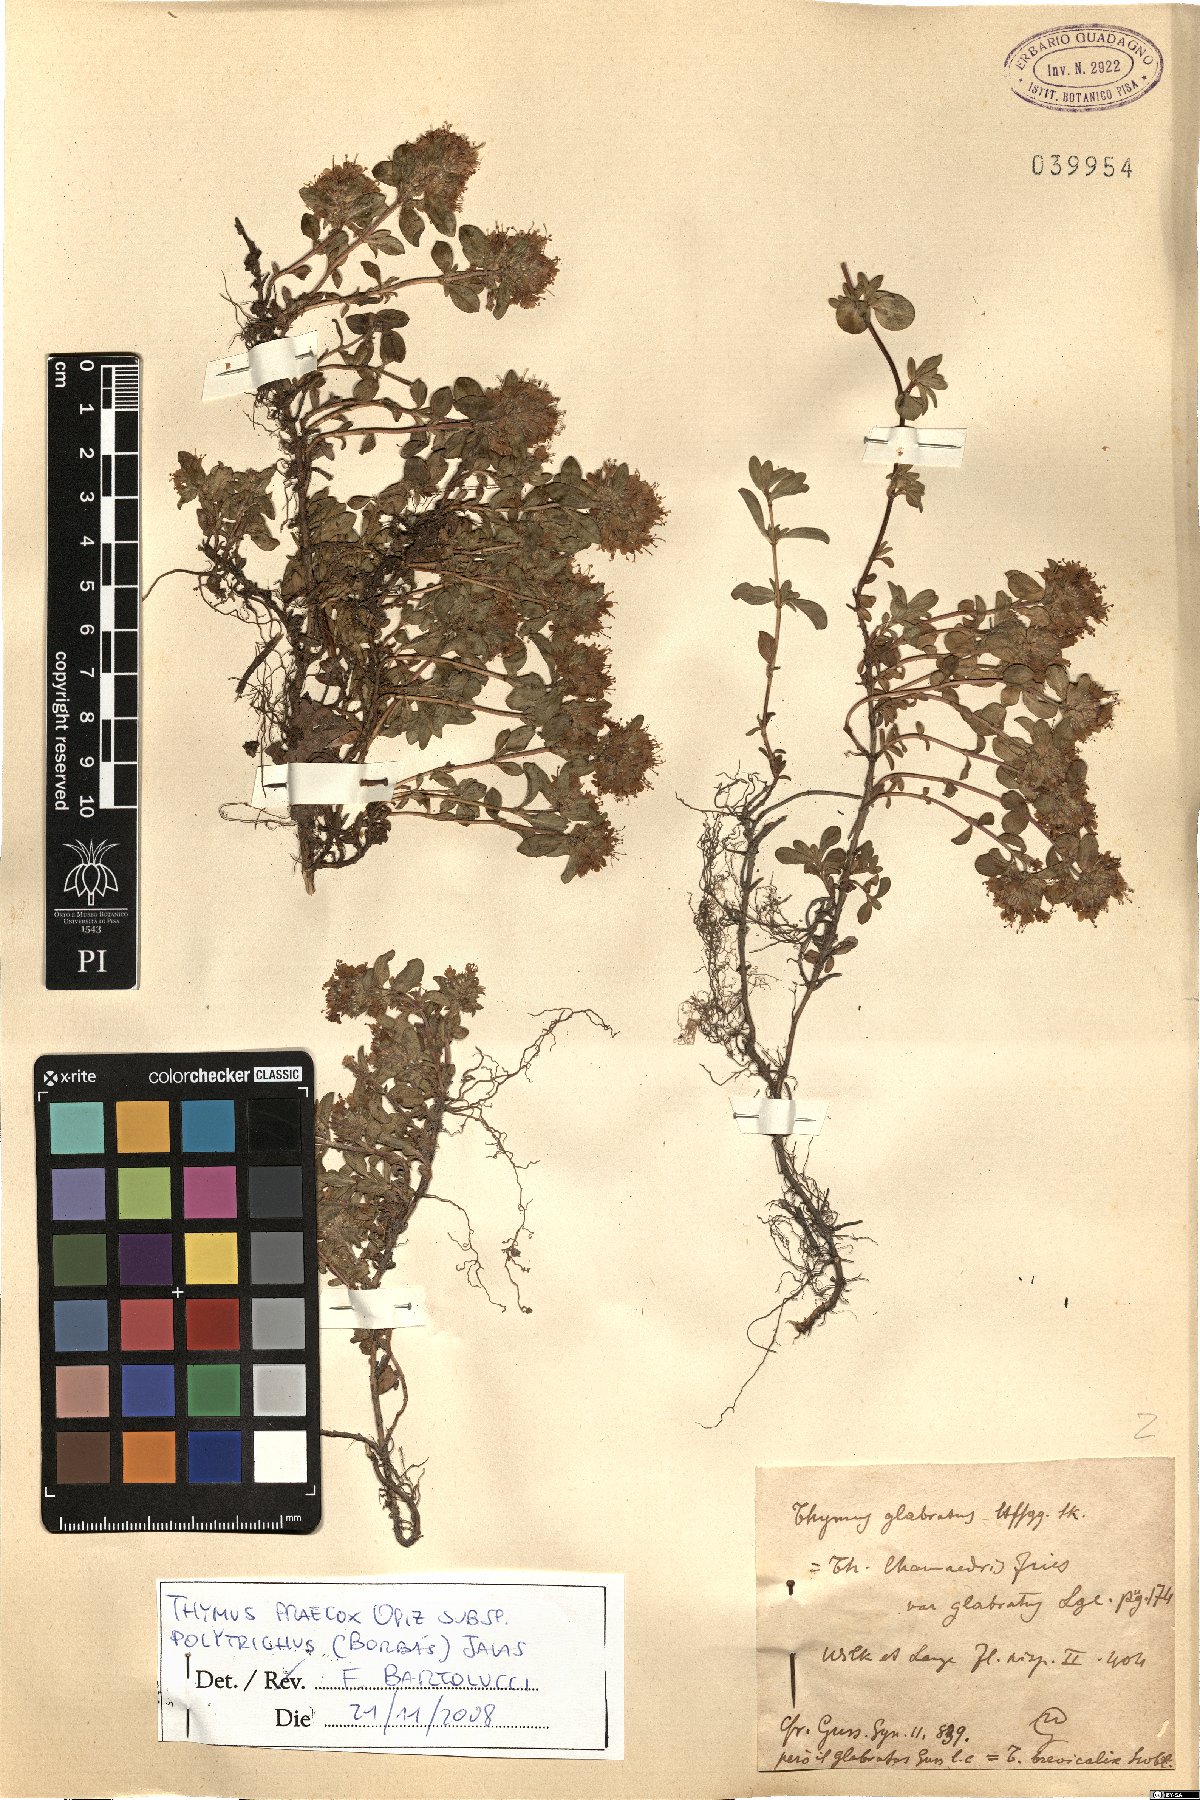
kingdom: Plantae
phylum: Tracheophyta
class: Magnoliopsida
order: Lamiales
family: Lamiaceae
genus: Thymus
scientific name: Thymus praecox
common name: Wild thyme
